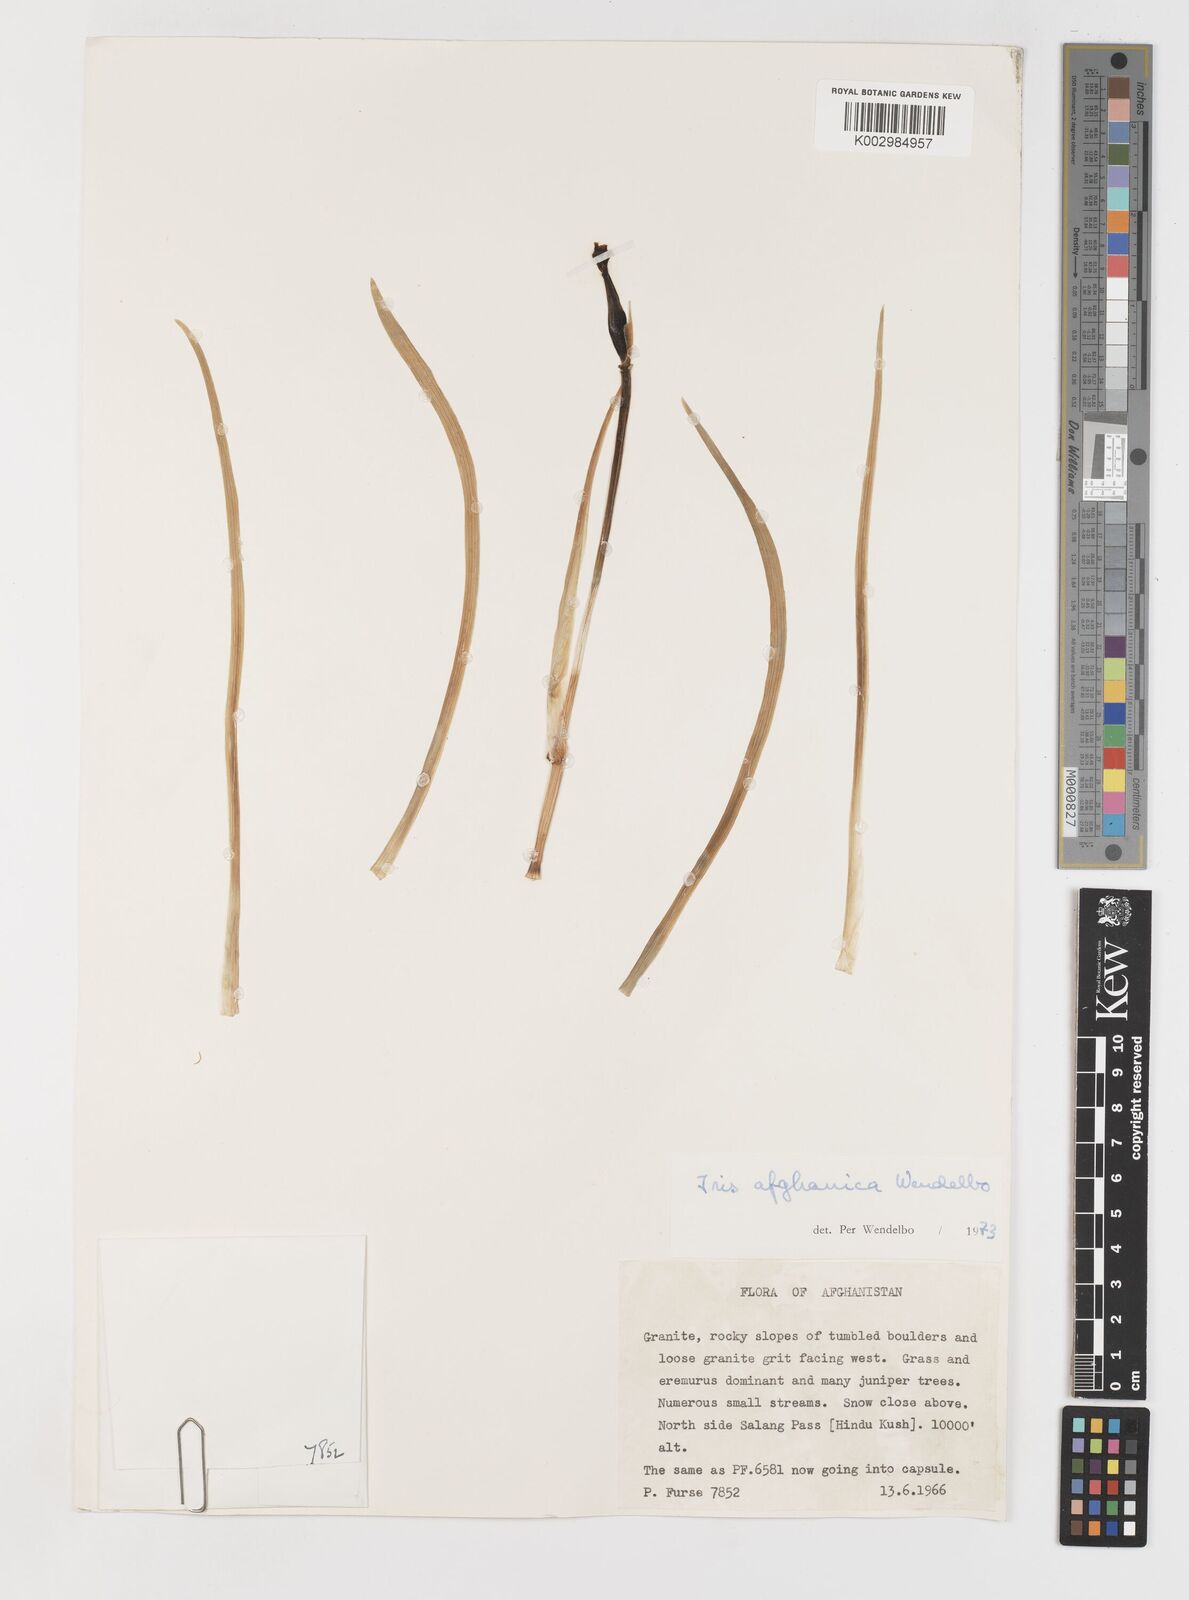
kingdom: Plantae
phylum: Tracheophyta
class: Liliopsida
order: Asparagales
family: Iridaceae
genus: Iris
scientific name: Iris afghanica
